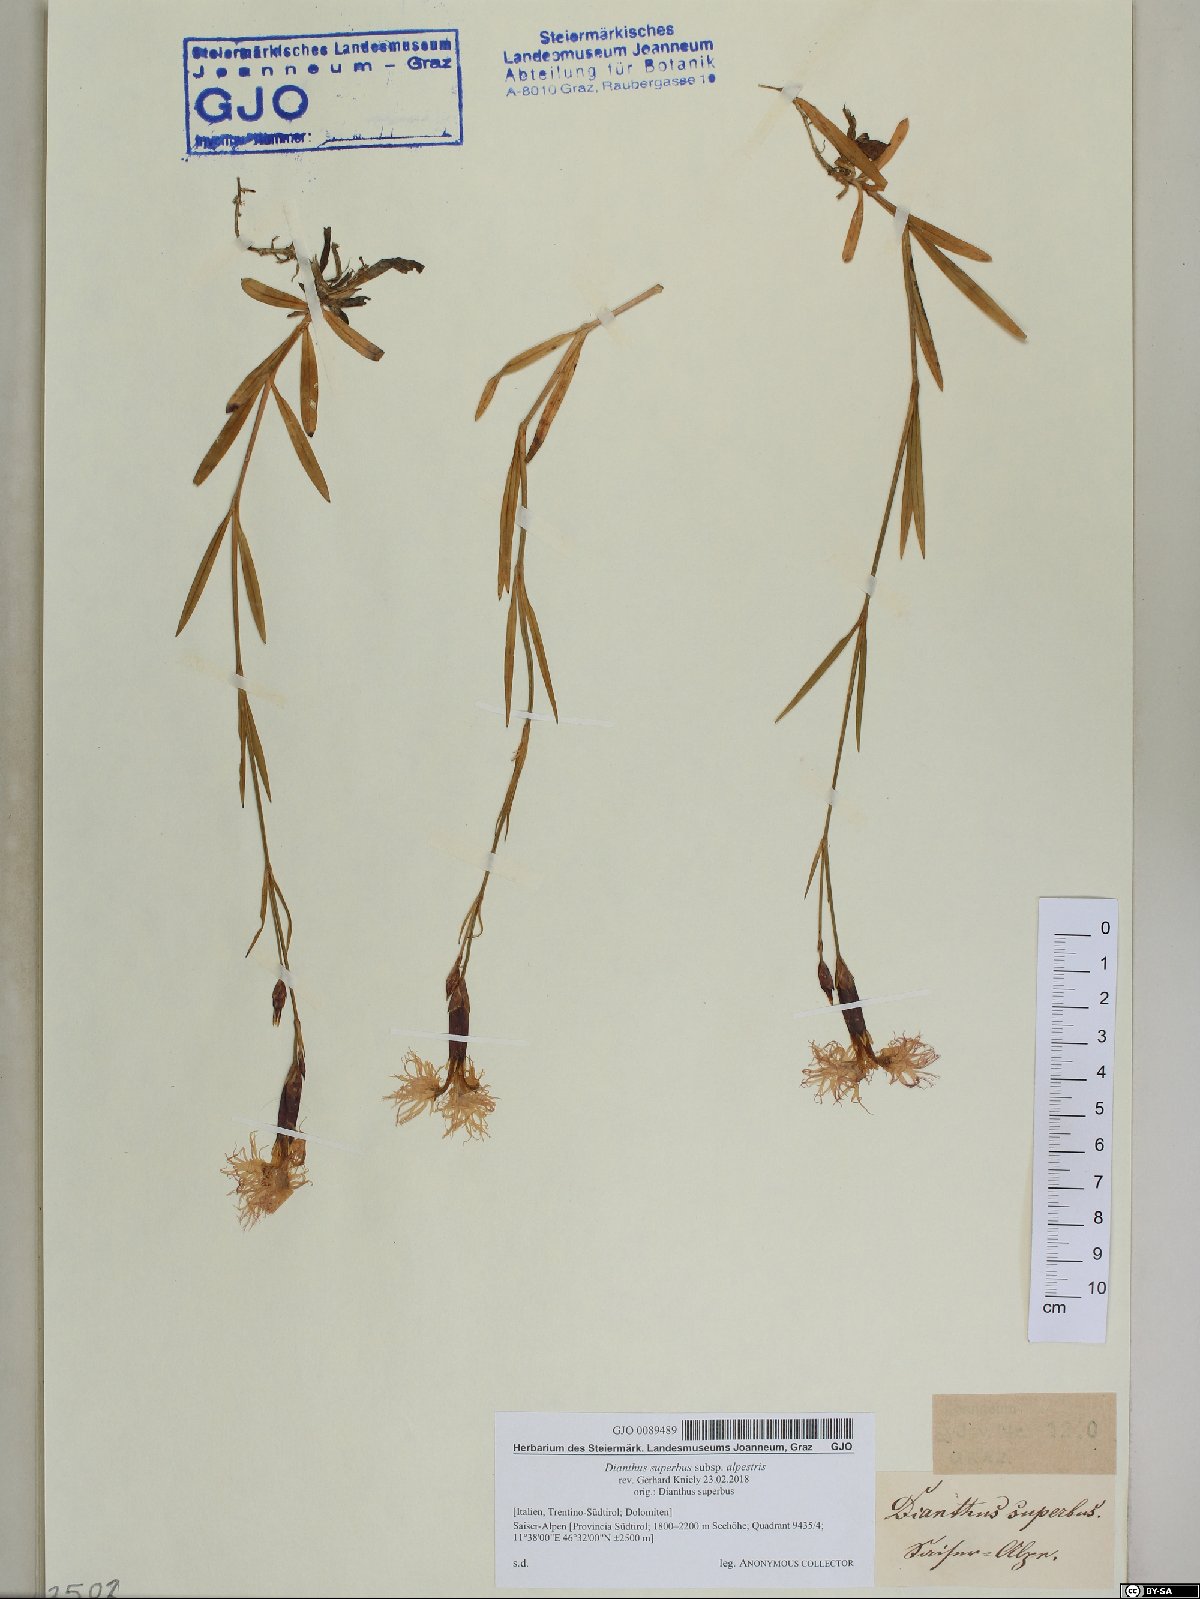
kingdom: Plantae
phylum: Tracheophyta
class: Magnoliopsida
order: Asterales
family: Asteraceae
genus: Cirsium
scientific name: Cirsium spinosissimum
